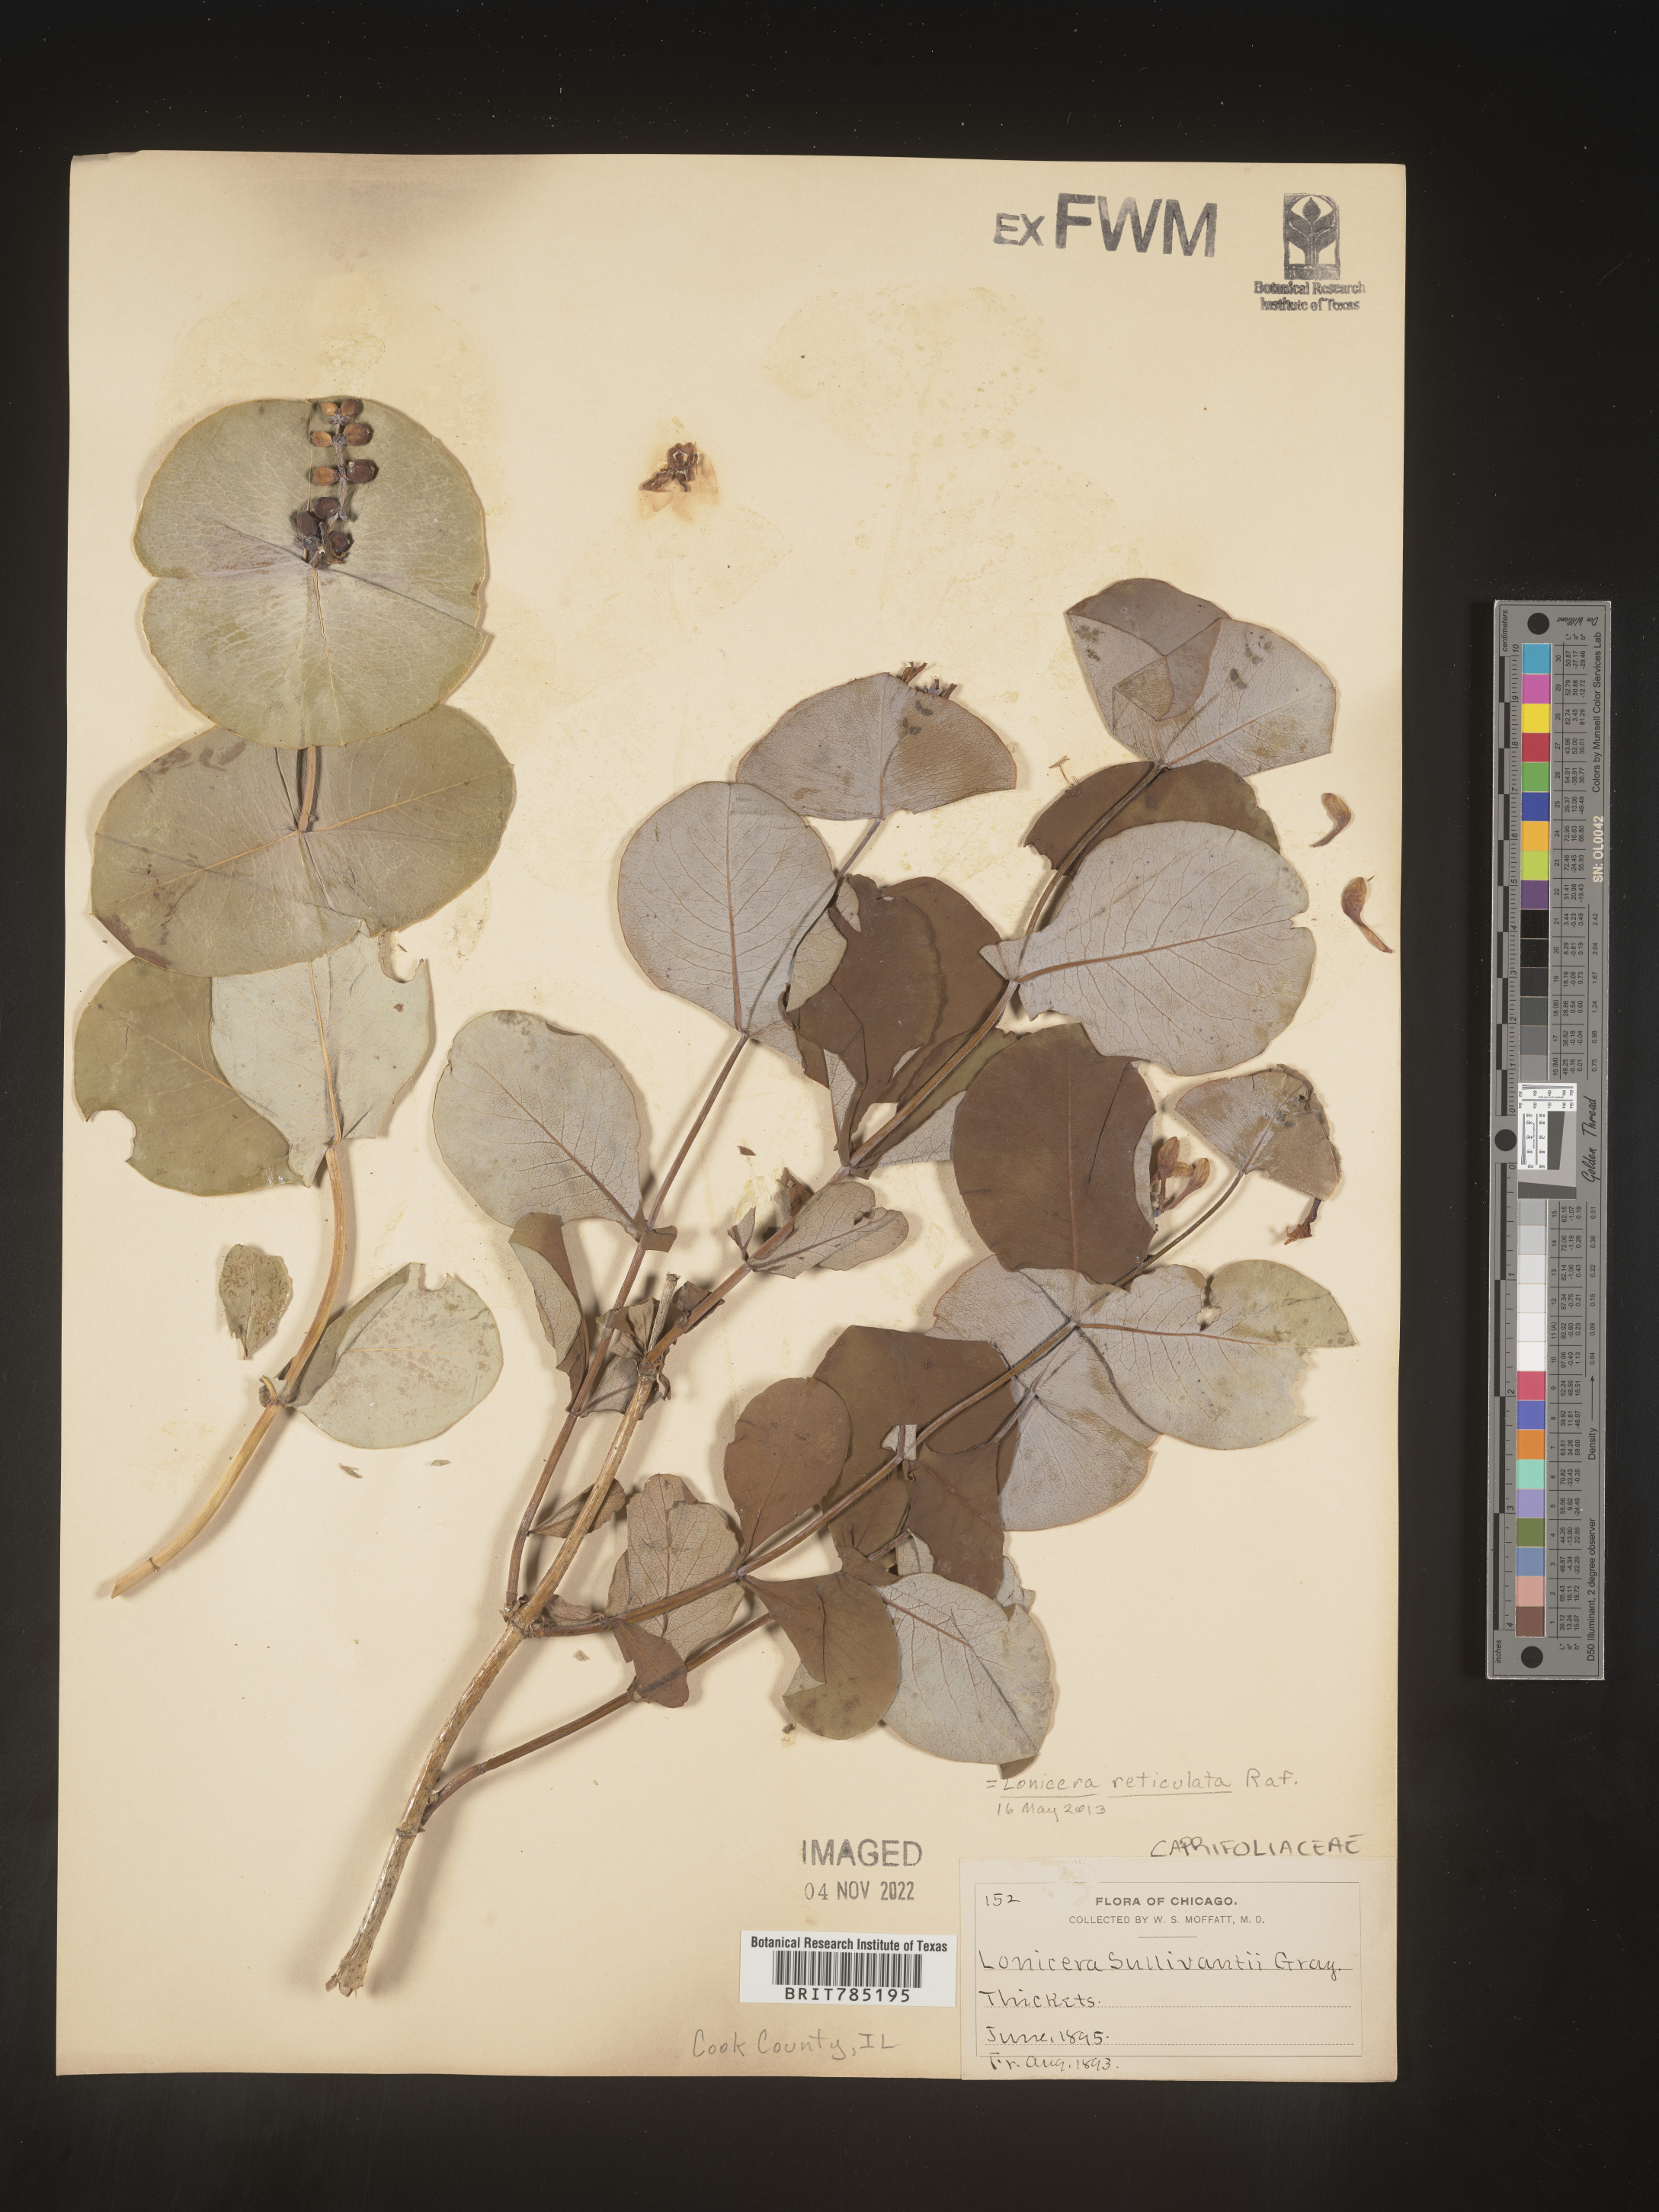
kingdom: Plantae
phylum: Tracheophyta
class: Magnoliopsida
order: Dipsacales
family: Caprifoliaceae
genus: Lonicera
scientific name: Lonicera
